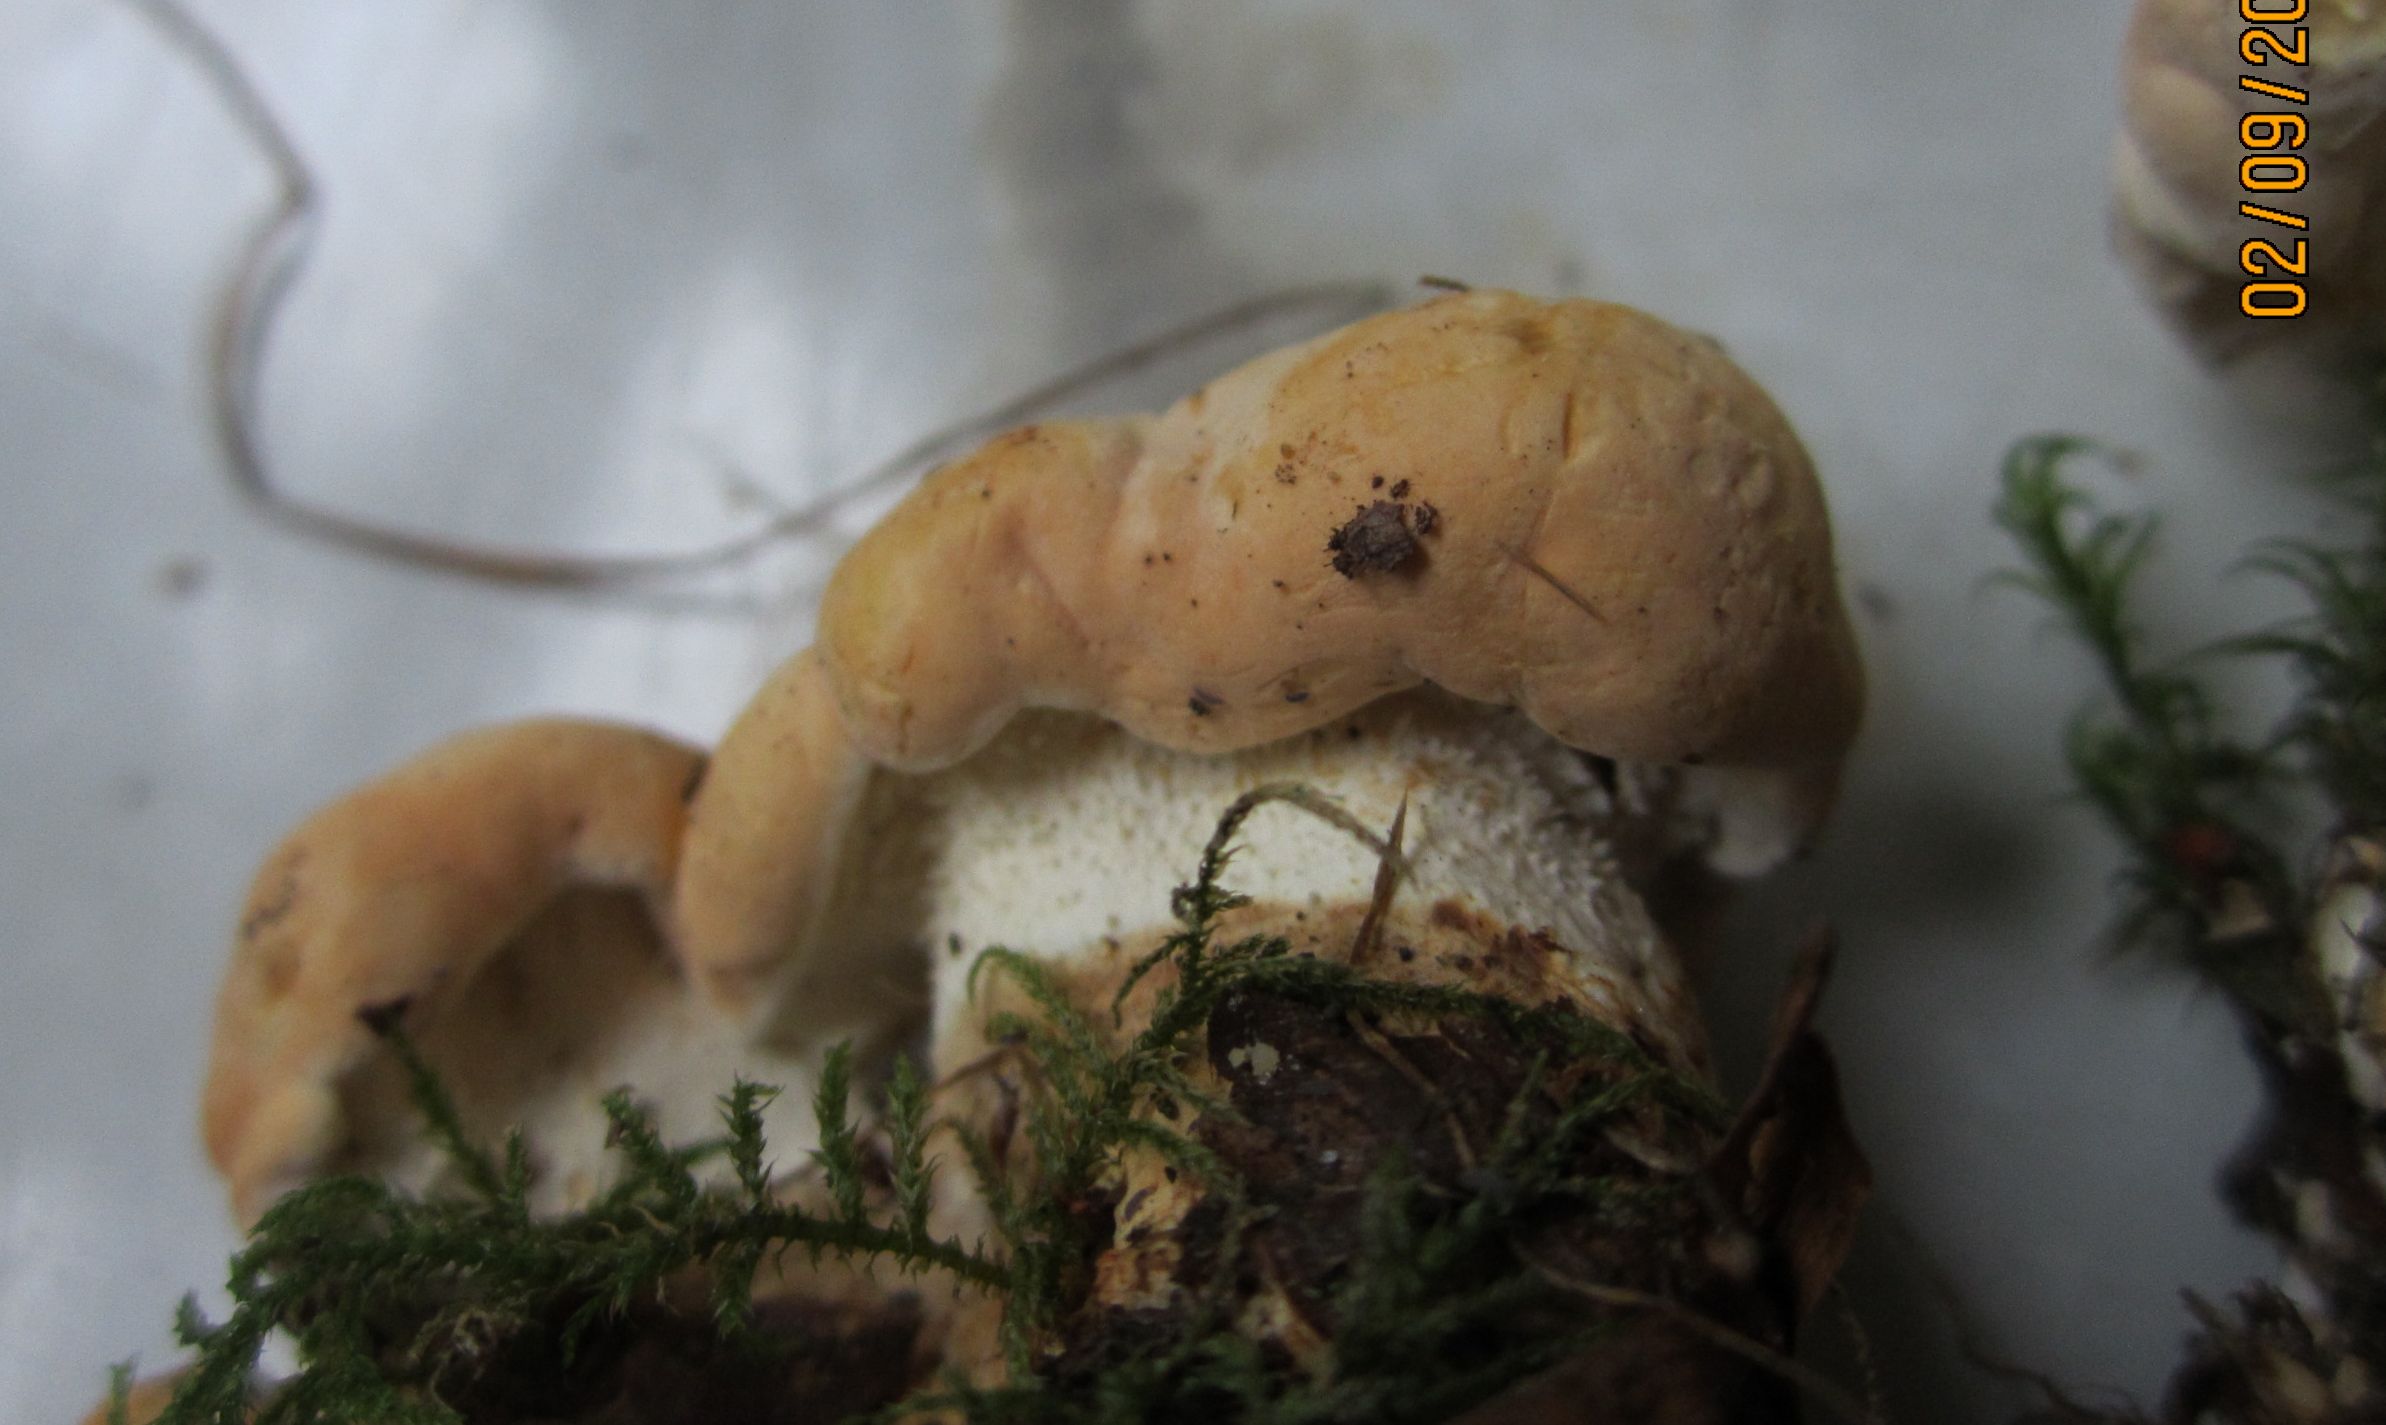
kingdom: Fungi
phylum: Basidiomycota
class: Agaricomycetes
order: Cantharellales
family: Hydnaceae
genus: Hydnum
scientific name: Hydnum repandum
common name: almindelig pigsvamp
